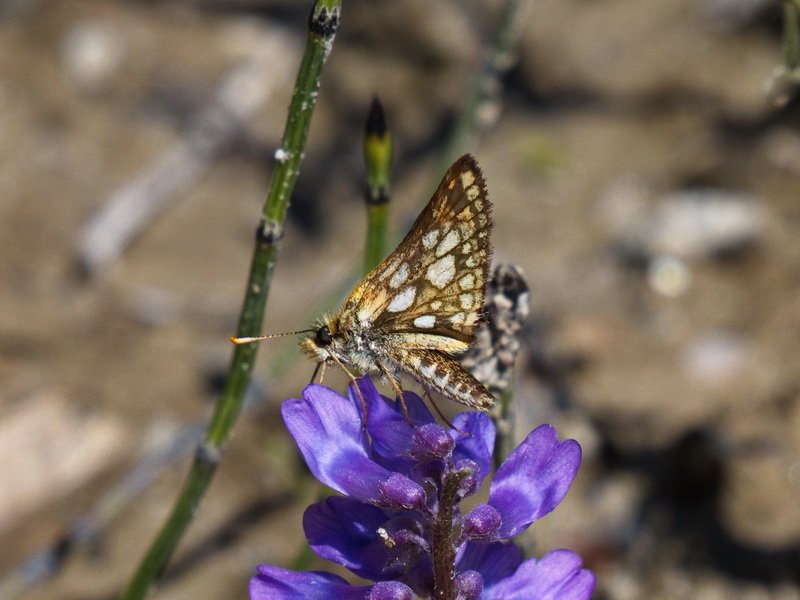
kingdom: Animalia
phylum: Arthropoda
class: Insecta
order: Lepidoptera
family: Hesperiidae
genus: Carterocephalus
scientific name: Carterocephalus palaemon
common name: Chequered Skipper
